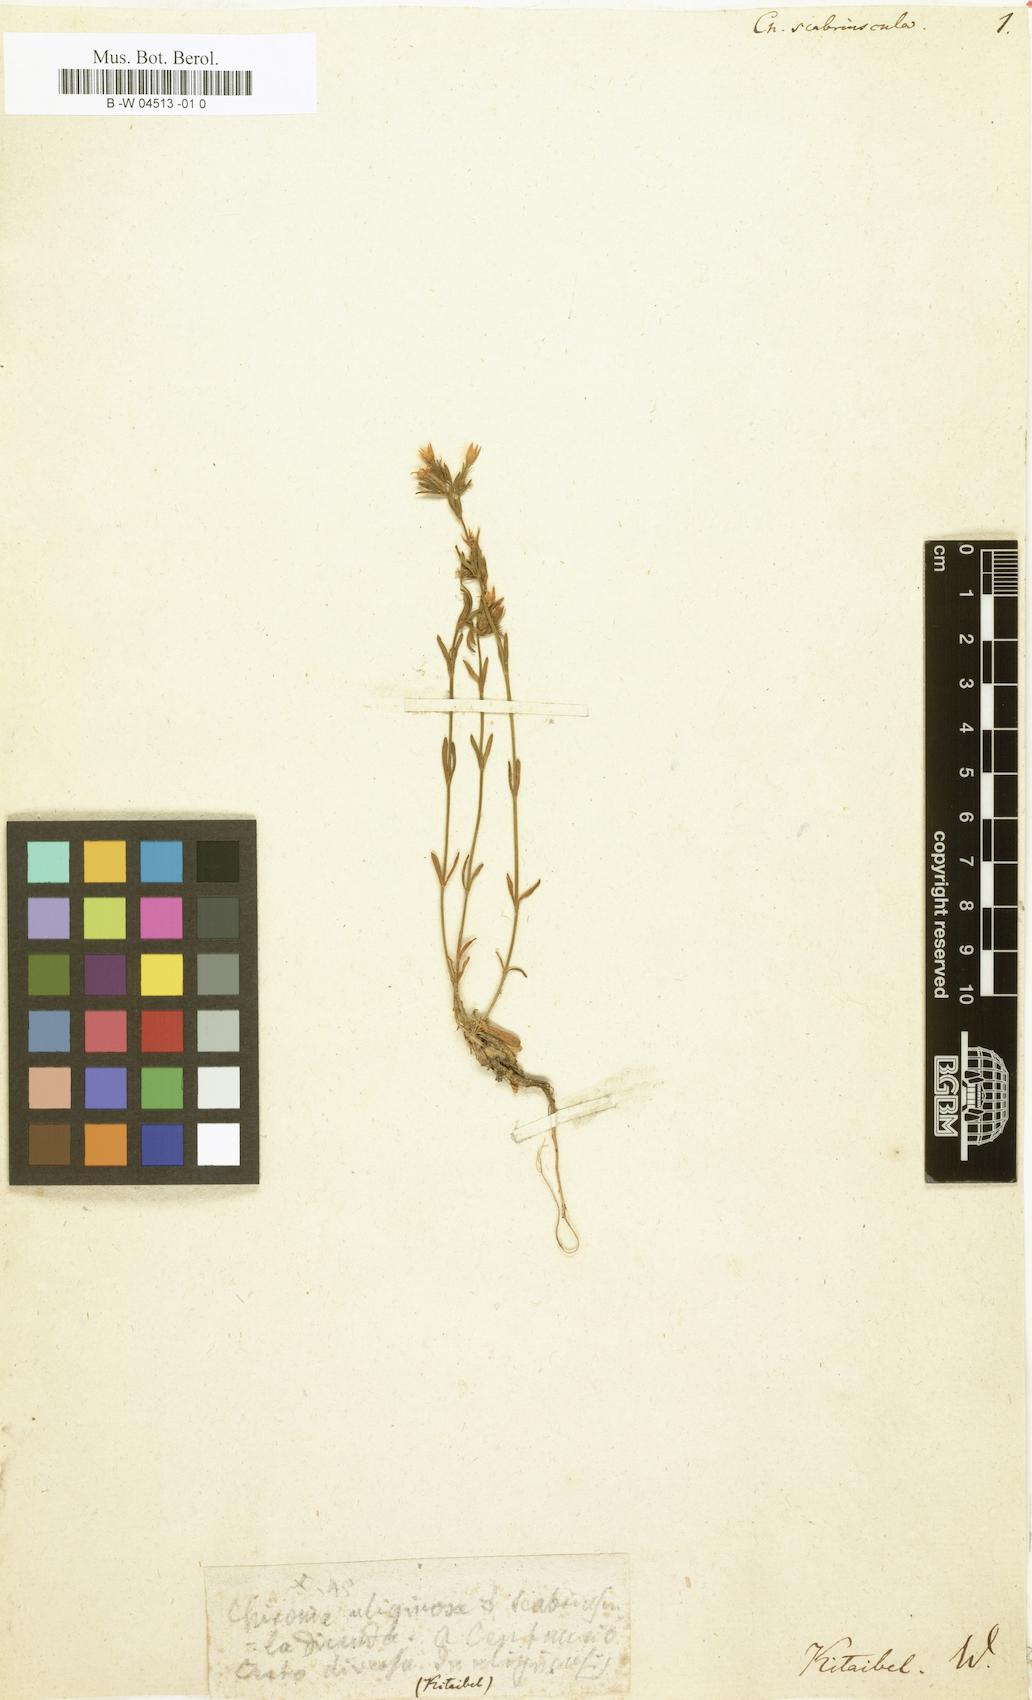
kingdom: Plantae
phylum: Tracheophyta
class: Magnoliopsida
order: Gentianales
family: Gentianaceae
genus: Centaurium
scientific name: Centaurium quadrifolium
